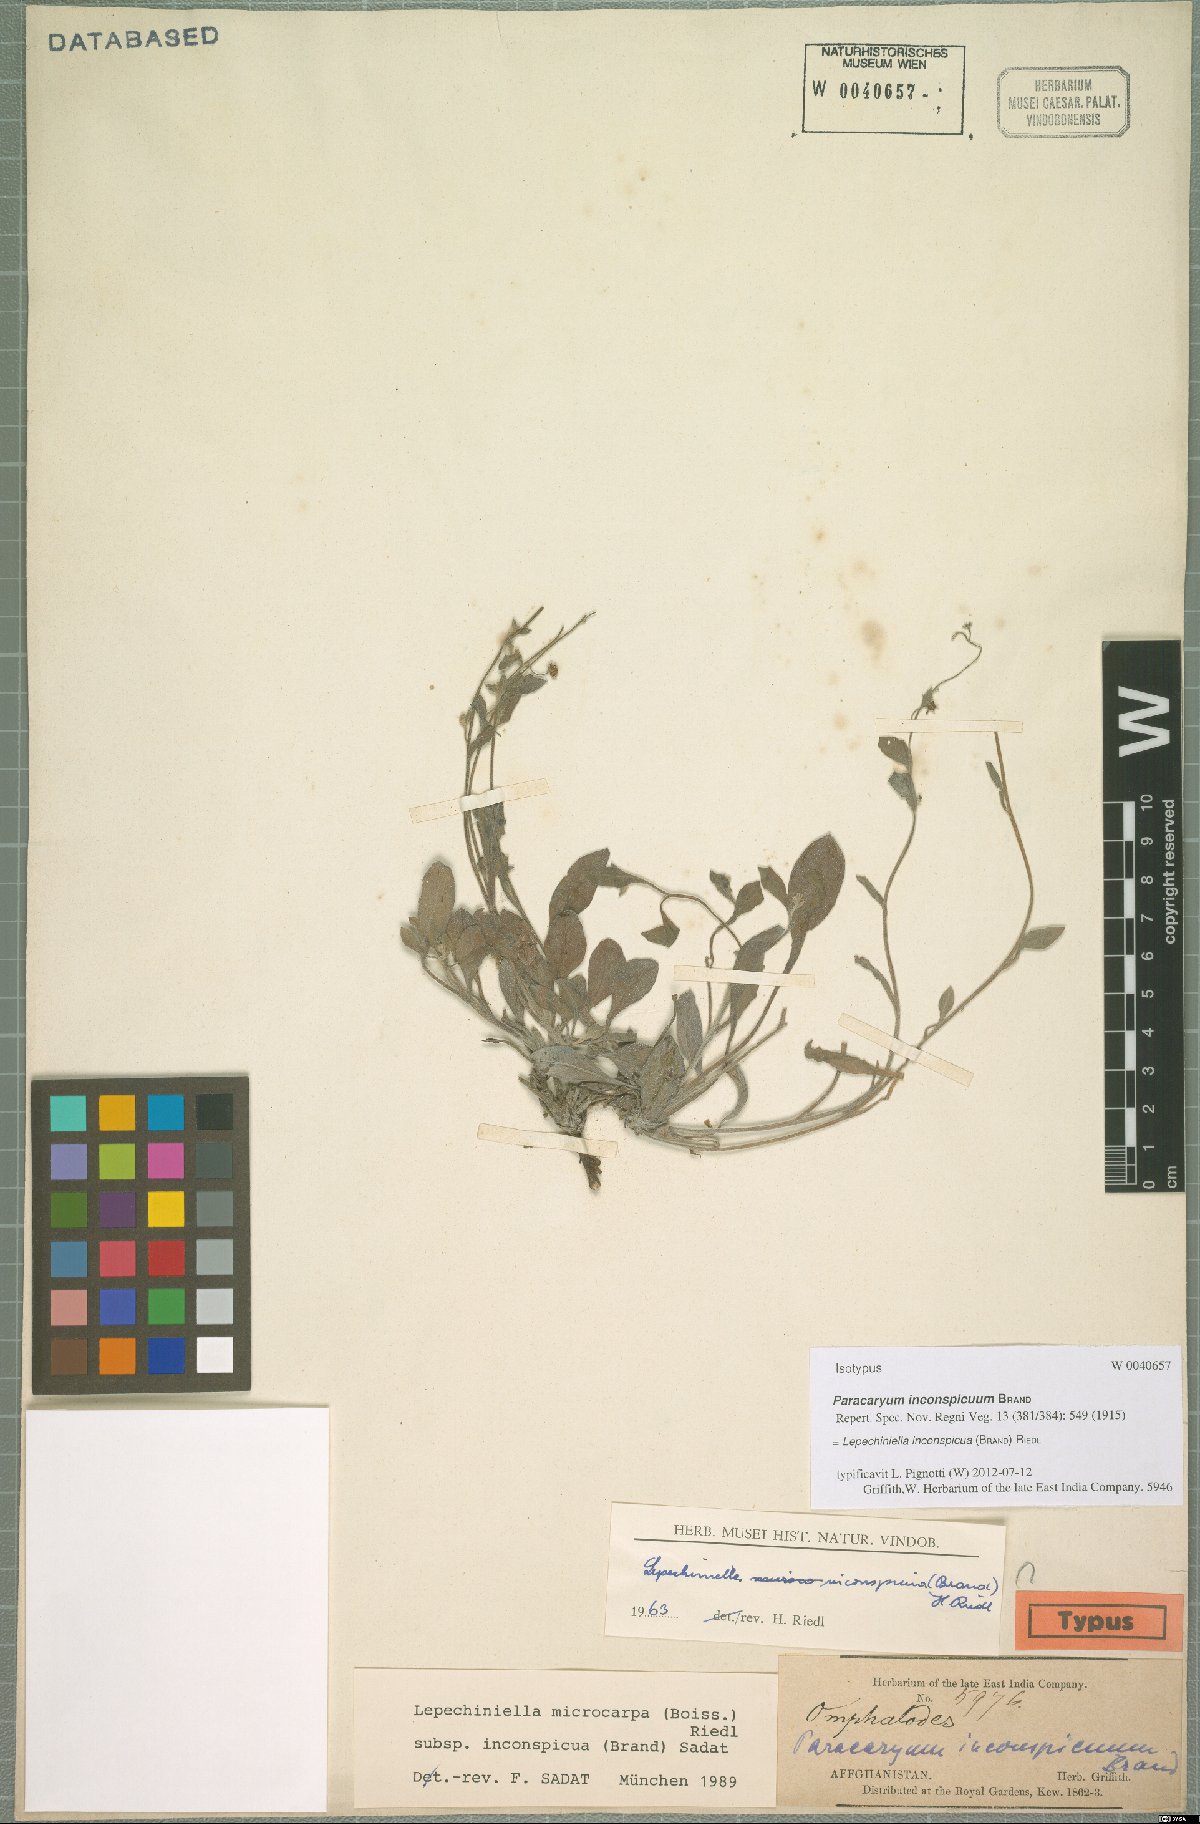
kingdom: Plantae
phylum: Tracheophyta
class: Magnoliopsida
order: Boraginales
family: Boraginaceae
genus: Lepechiniella
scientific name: Lepechiniella microcarpa
